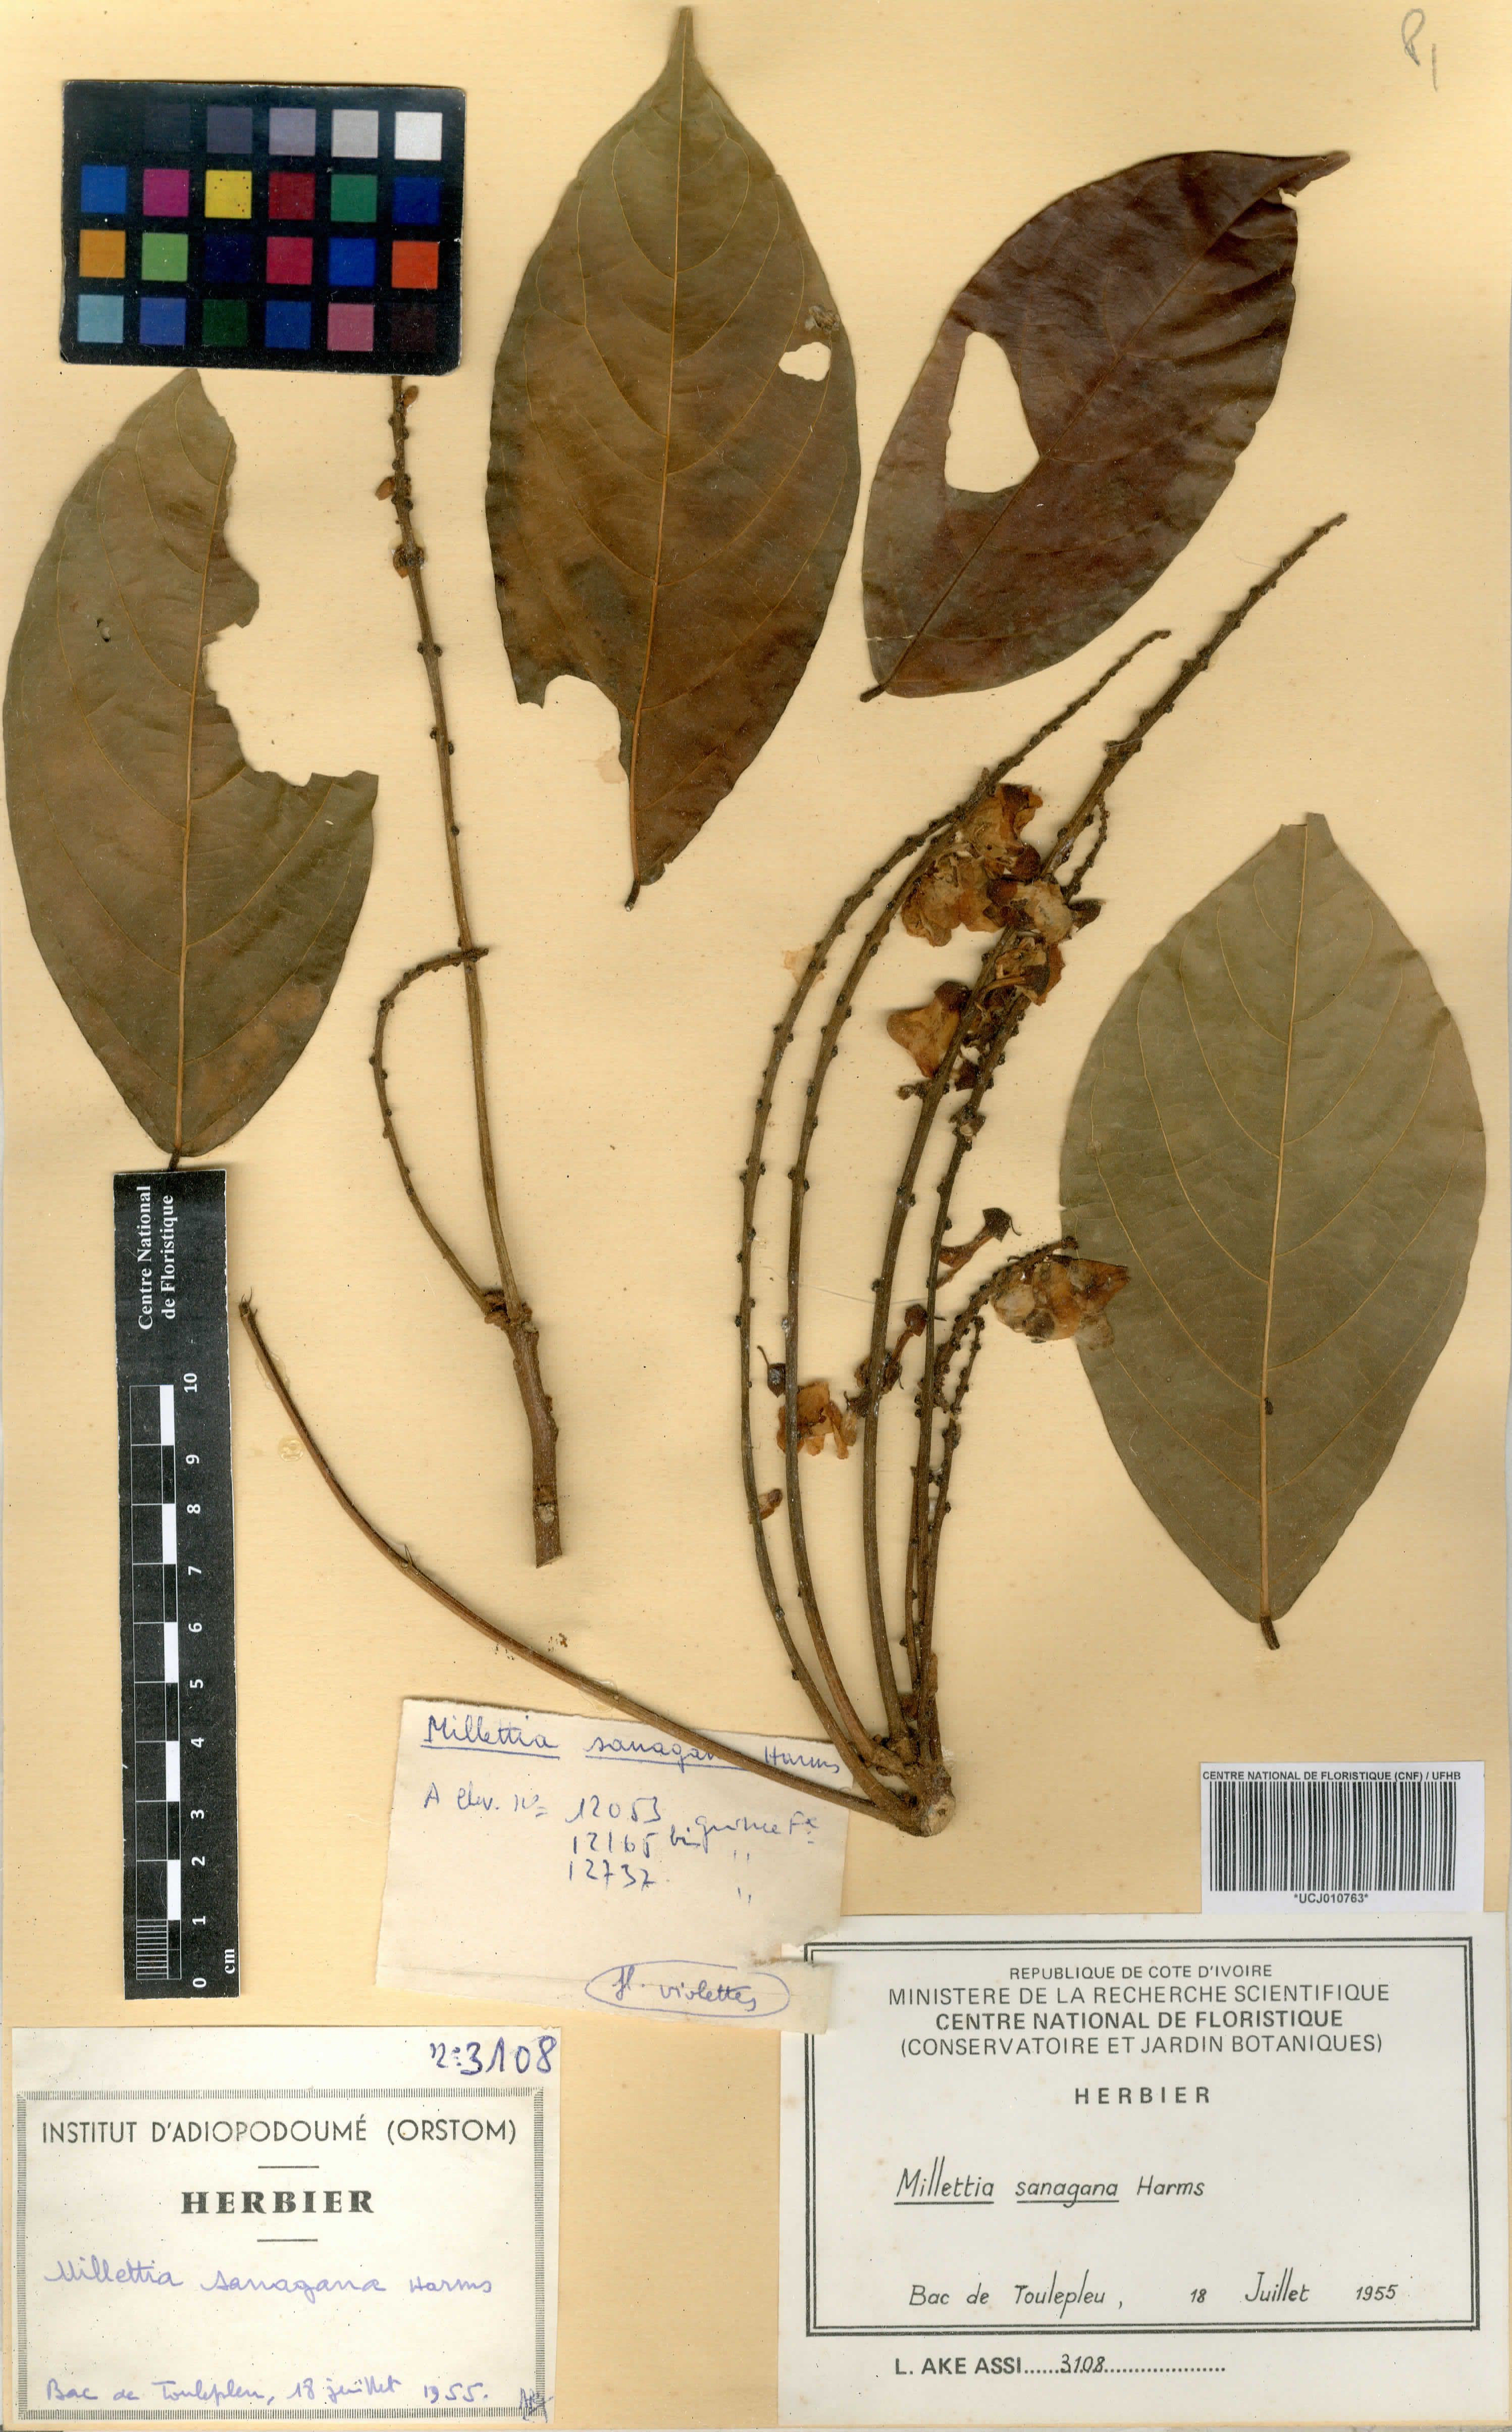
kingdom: Plantae
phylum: Tracheophyta
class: Magnoliopsida
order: Fabales
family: Fabaceae
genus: Millettia
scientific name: Millettia sanagana
